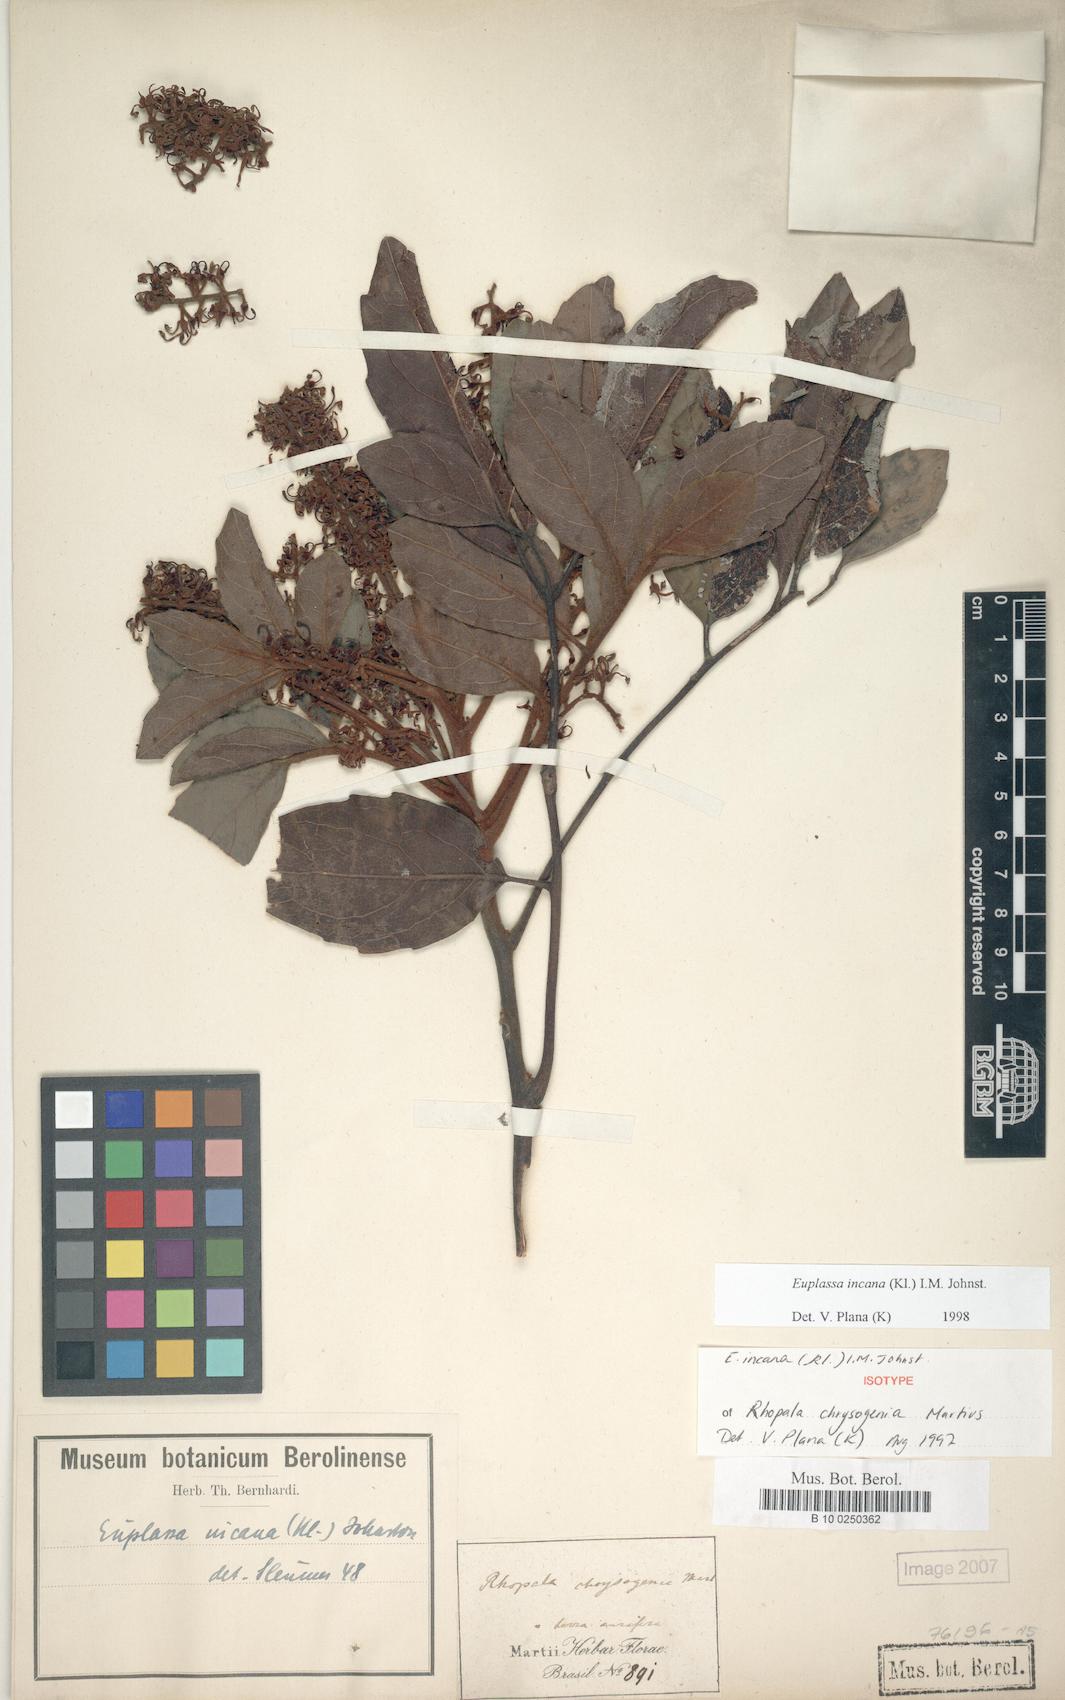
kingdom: Plantae
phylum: Tracheophyta
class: Magnoliopsida
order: Proteales
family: Proteaceae
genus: Euplassa
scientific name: Euplassa incana
